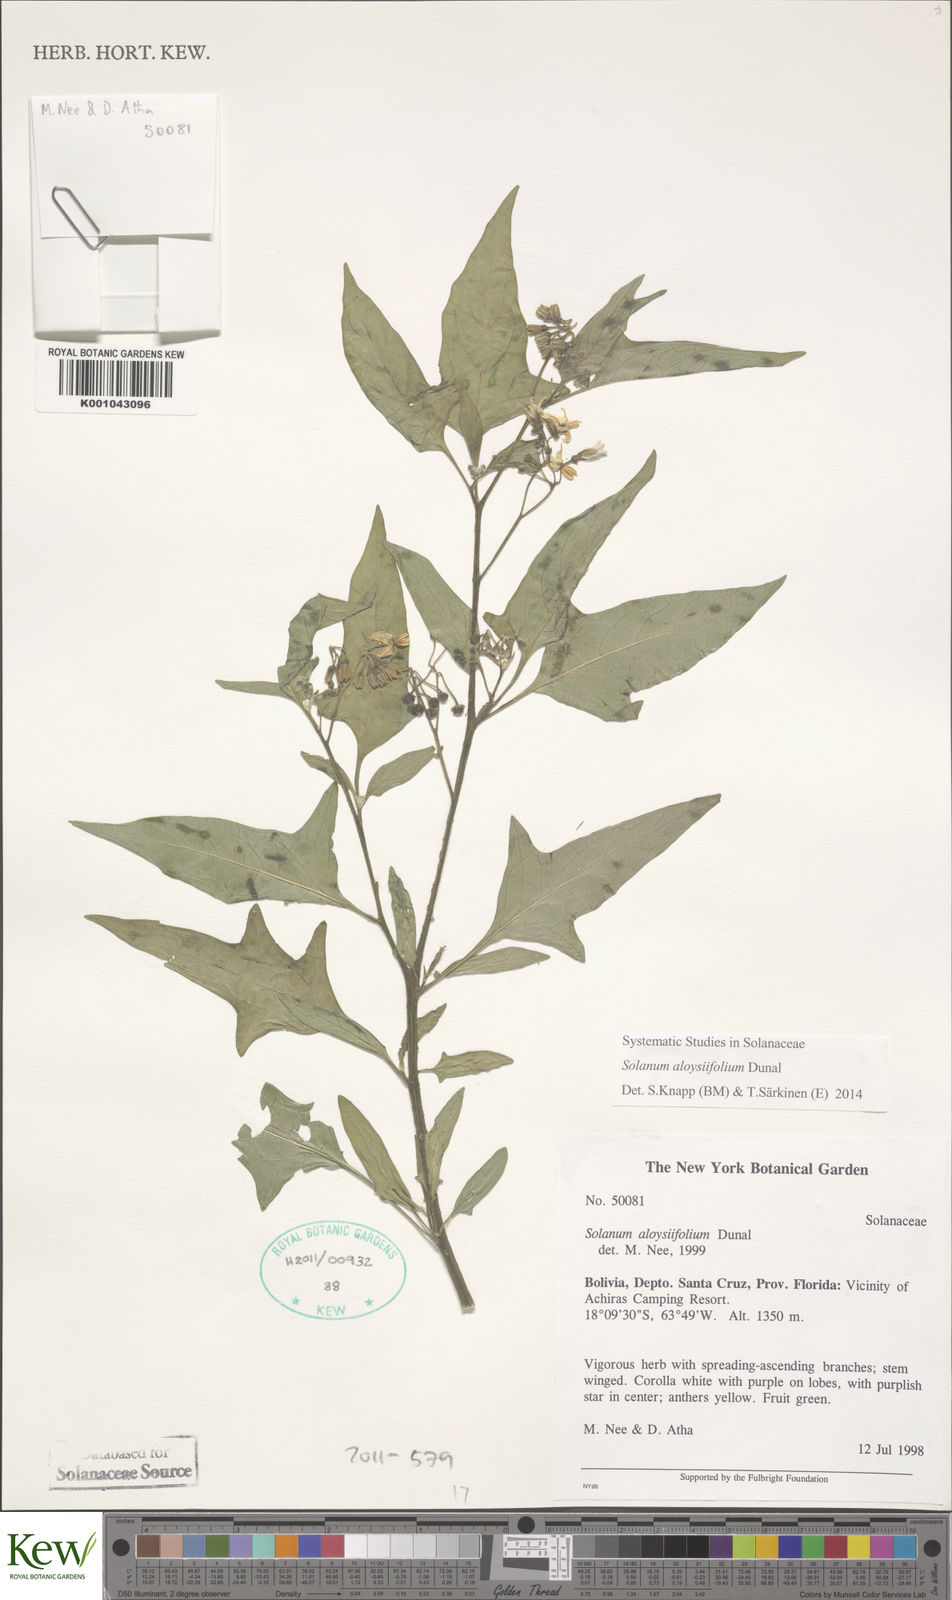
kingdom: Plantae
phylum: Tracheophyta
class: Magnoliopsida
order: Solanales
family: Solanaceae
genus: Solanum
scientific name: Solanum aloysiifolium
